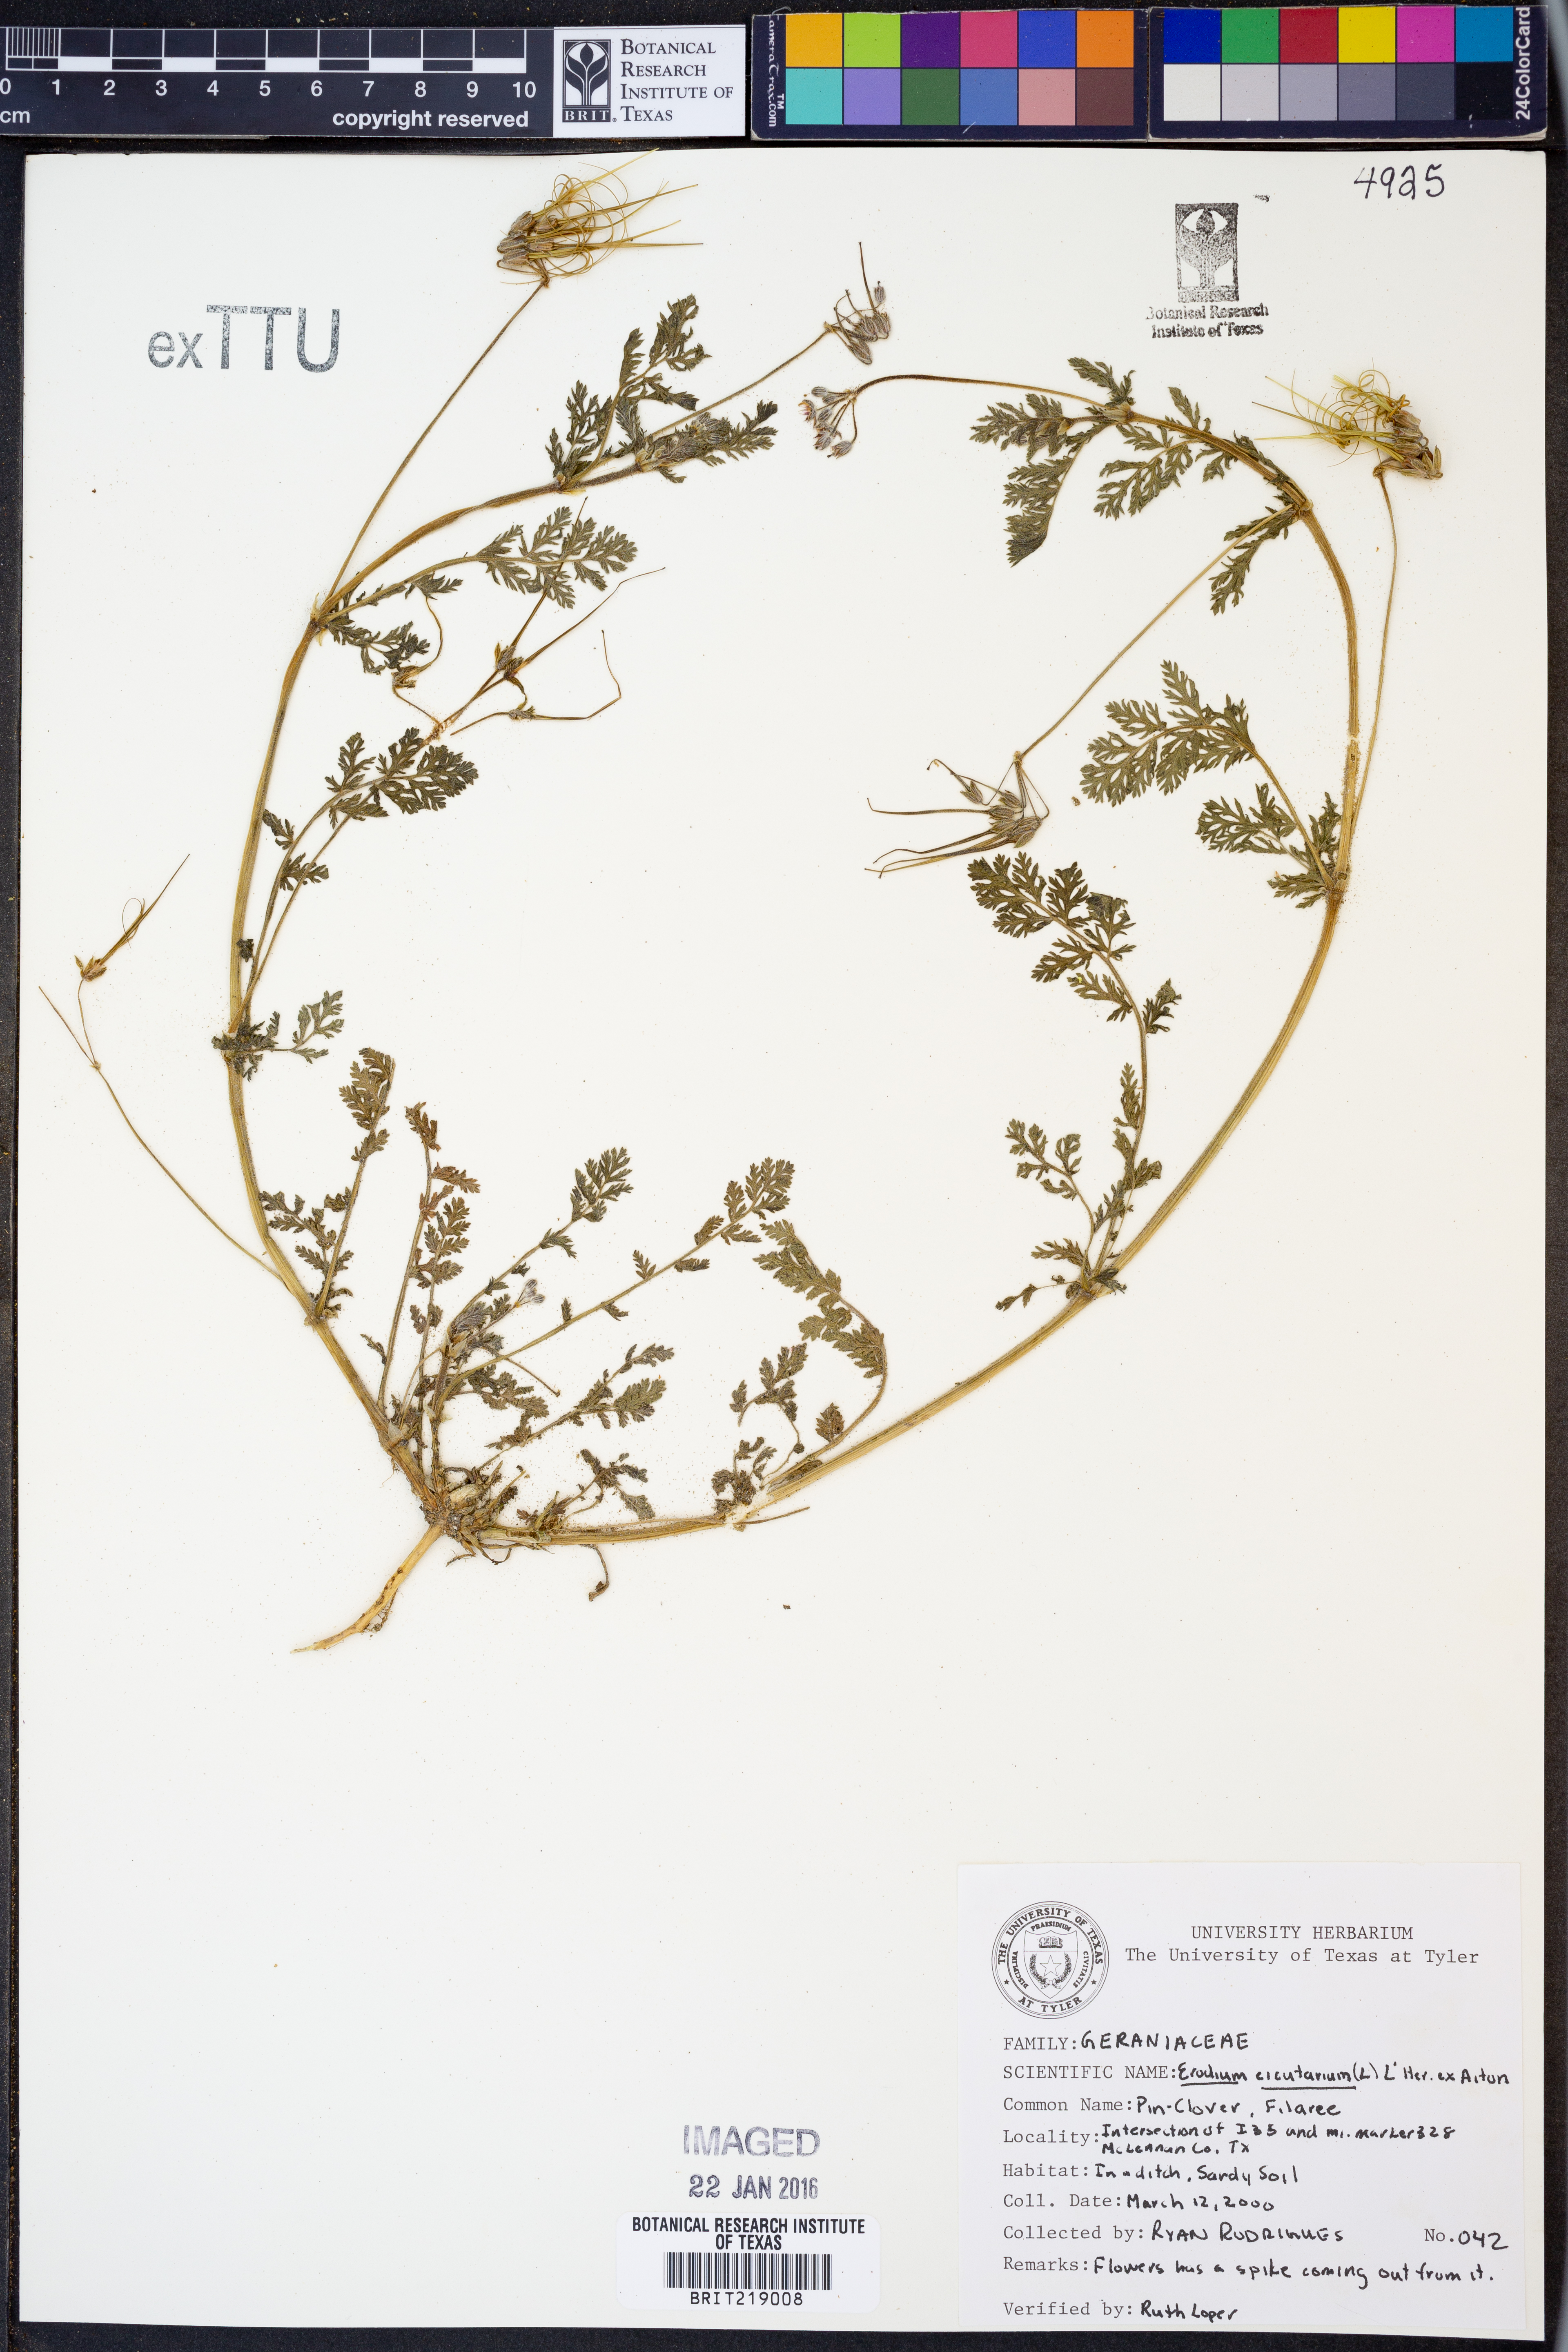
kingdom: Plantae
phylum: Tracheophyta
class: Magnoliopsida
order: Geraniales
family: Geraniaceae
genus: Erodium
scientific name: Erodium cicutarium
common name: Common stork's-bill
